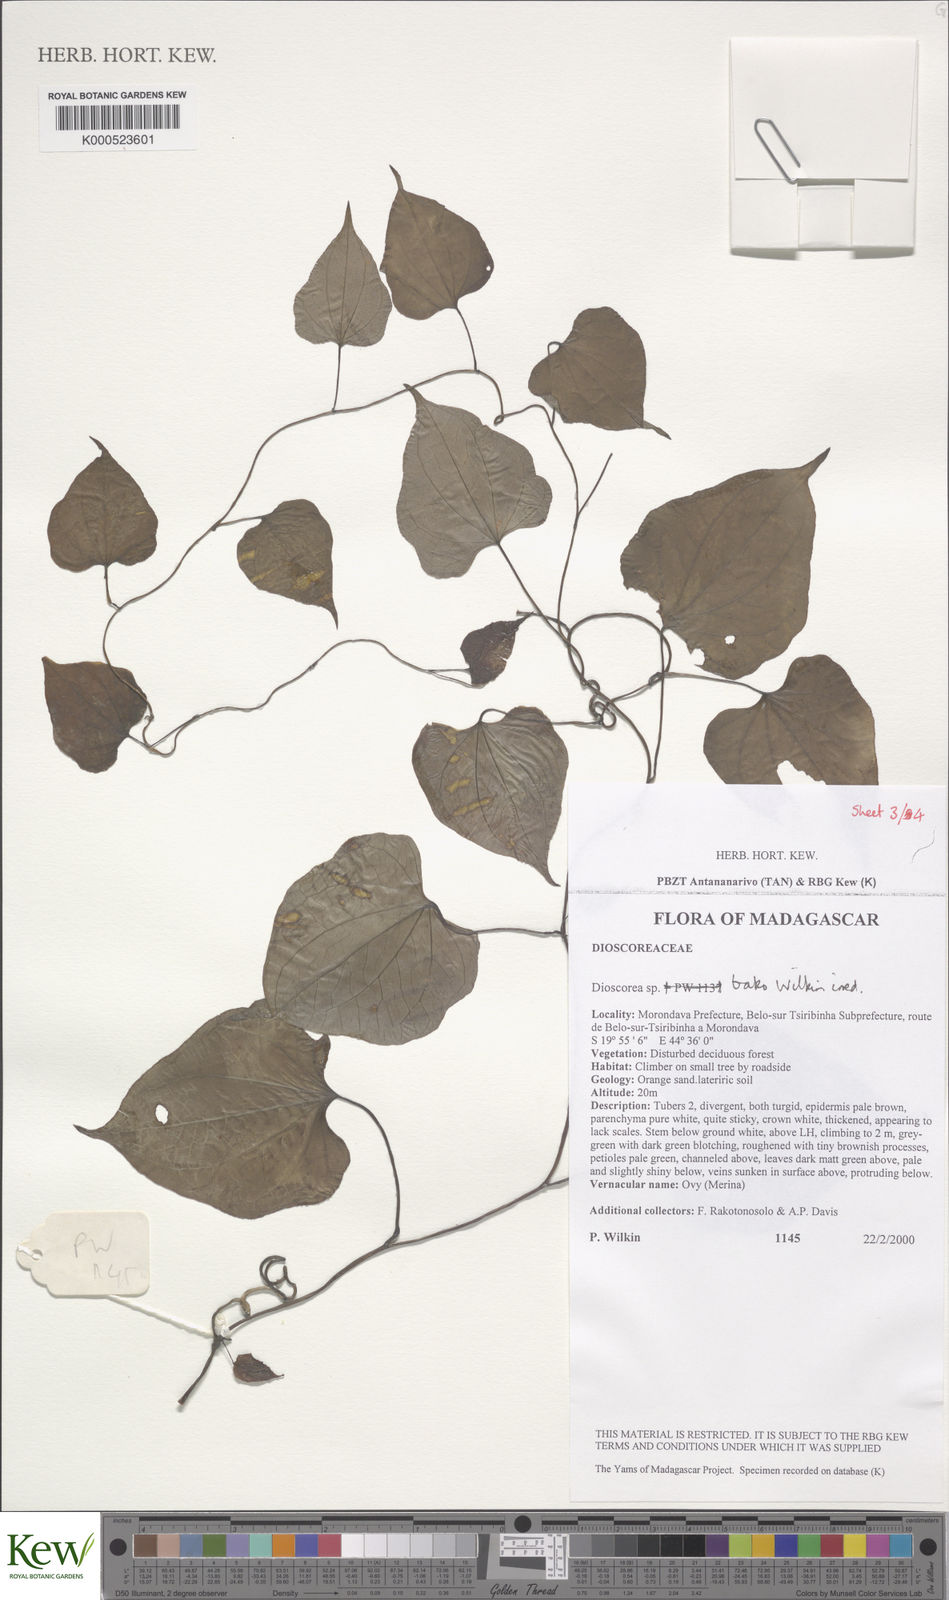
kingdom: Plantae
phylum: Tracheophyta
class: Liliopsida
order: Dioscoreales
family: Dioscoreaceae
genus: Dioscorea
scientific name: Dioscorea bako
